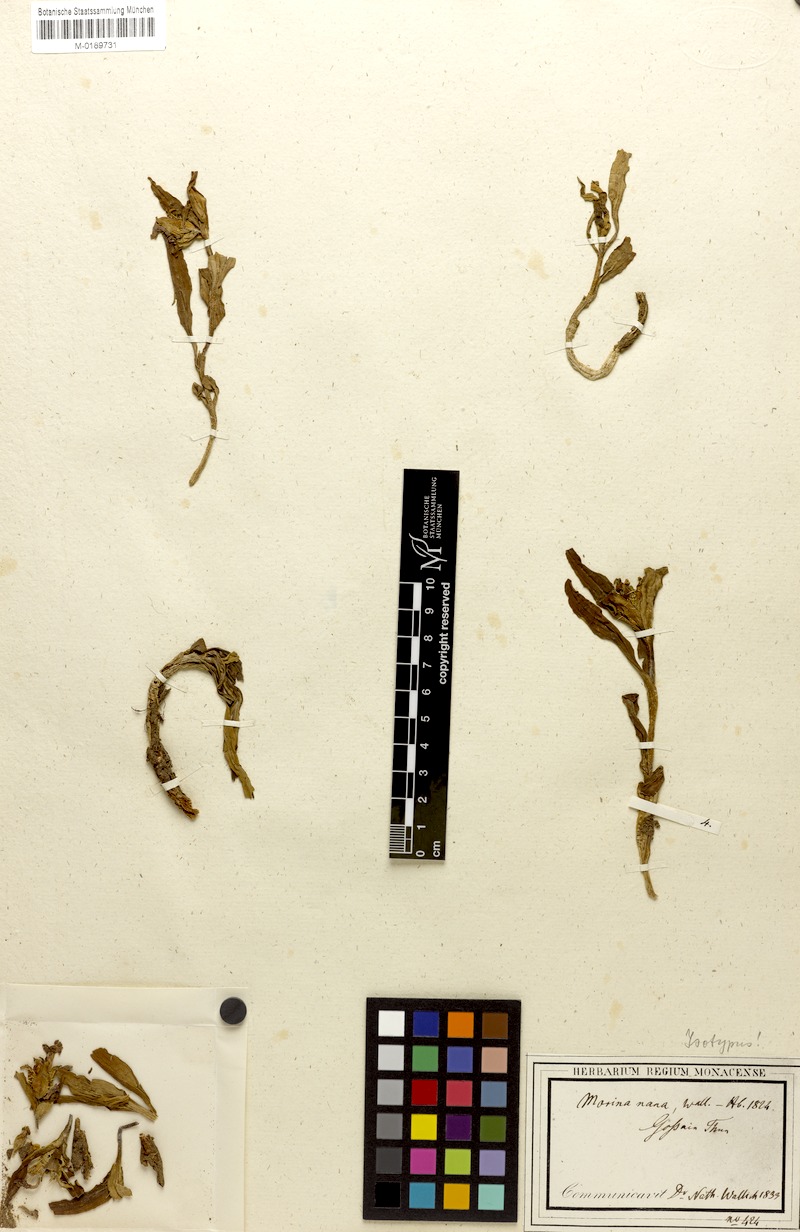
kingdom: Plantae
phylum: Tracheophyta
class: Magnoliopsida
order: Dipsacales
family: Caprifoliaceae
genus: Acanthocalyx
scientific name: Acanthocalyx nepalensis
